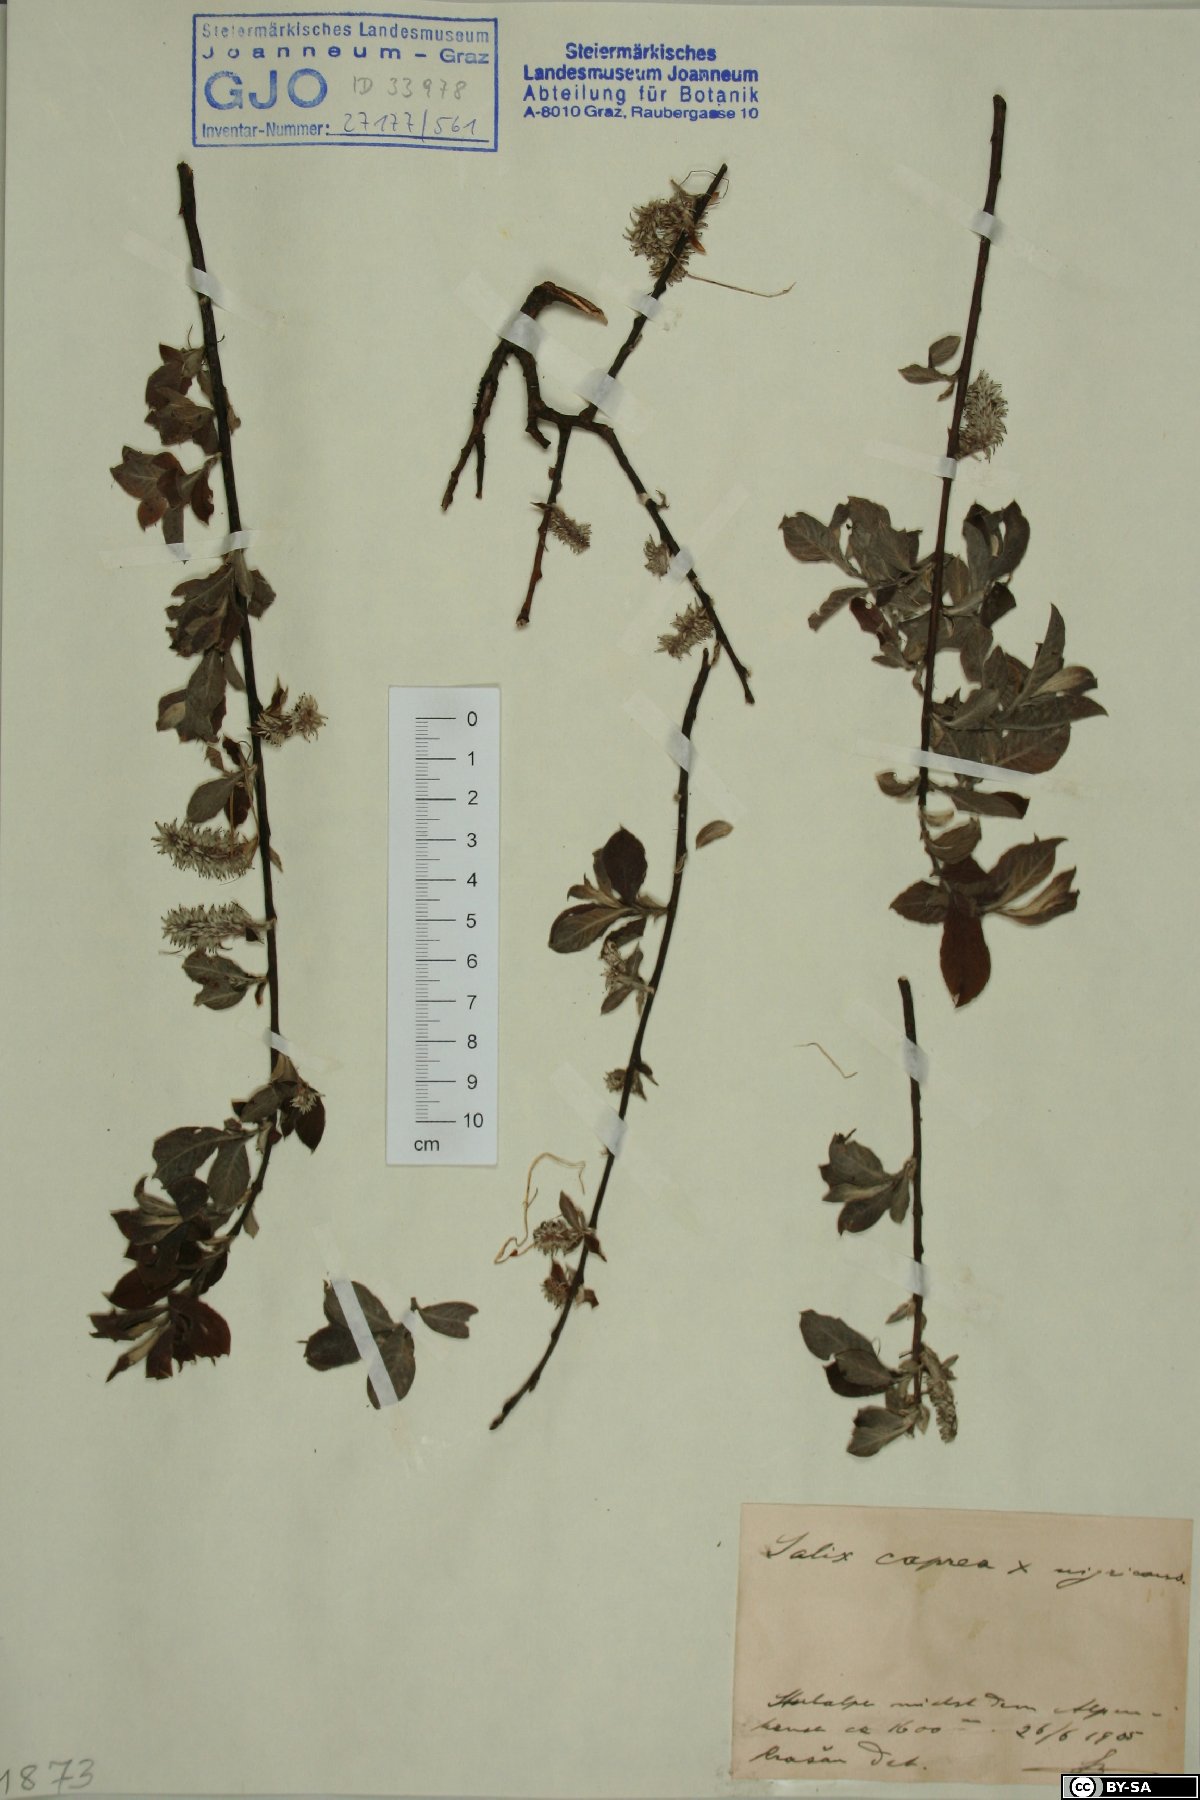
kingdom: Plantae
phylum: Tracheophyta
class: Magnoliopsida
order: Malpighiales
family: Salicaceae
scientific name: Salicaceae
